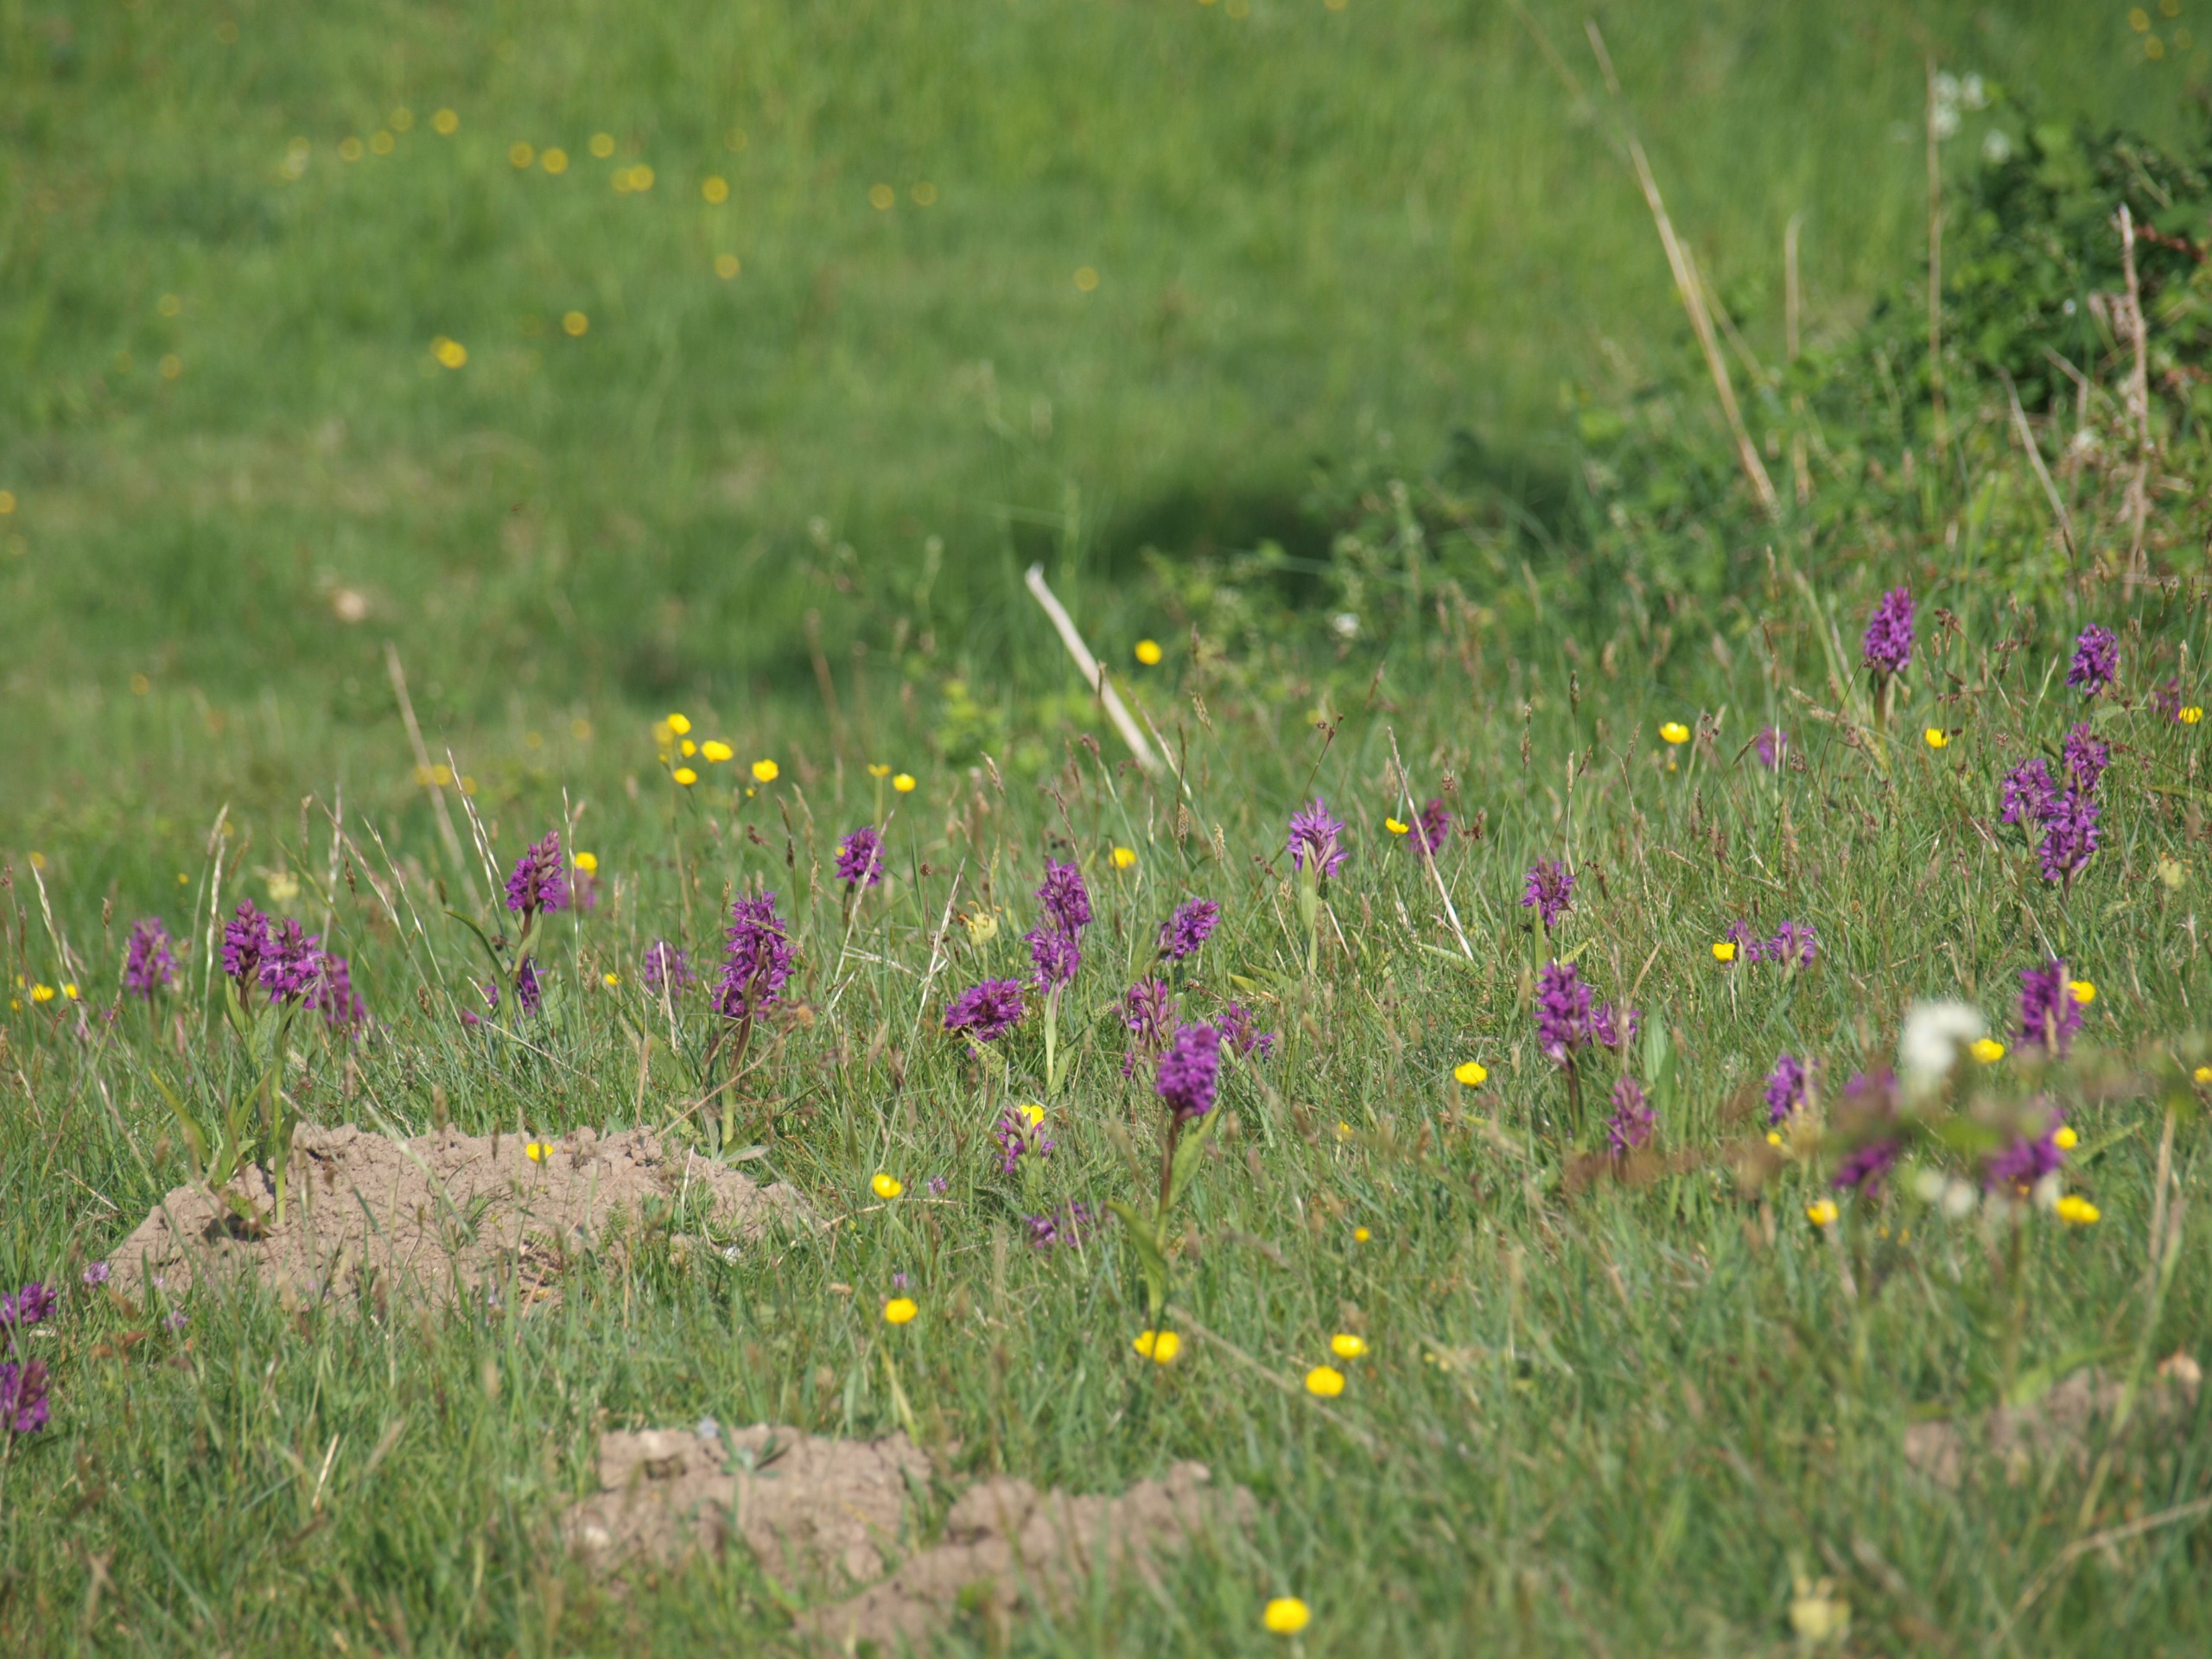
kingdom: Plantae
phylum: Tracheophyta
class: Liliopsida
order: Asparagales
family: Orchidaceae
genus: Dactylorhiza
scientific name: Dactylorhiza majalis
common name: Maj-gøgeurt
